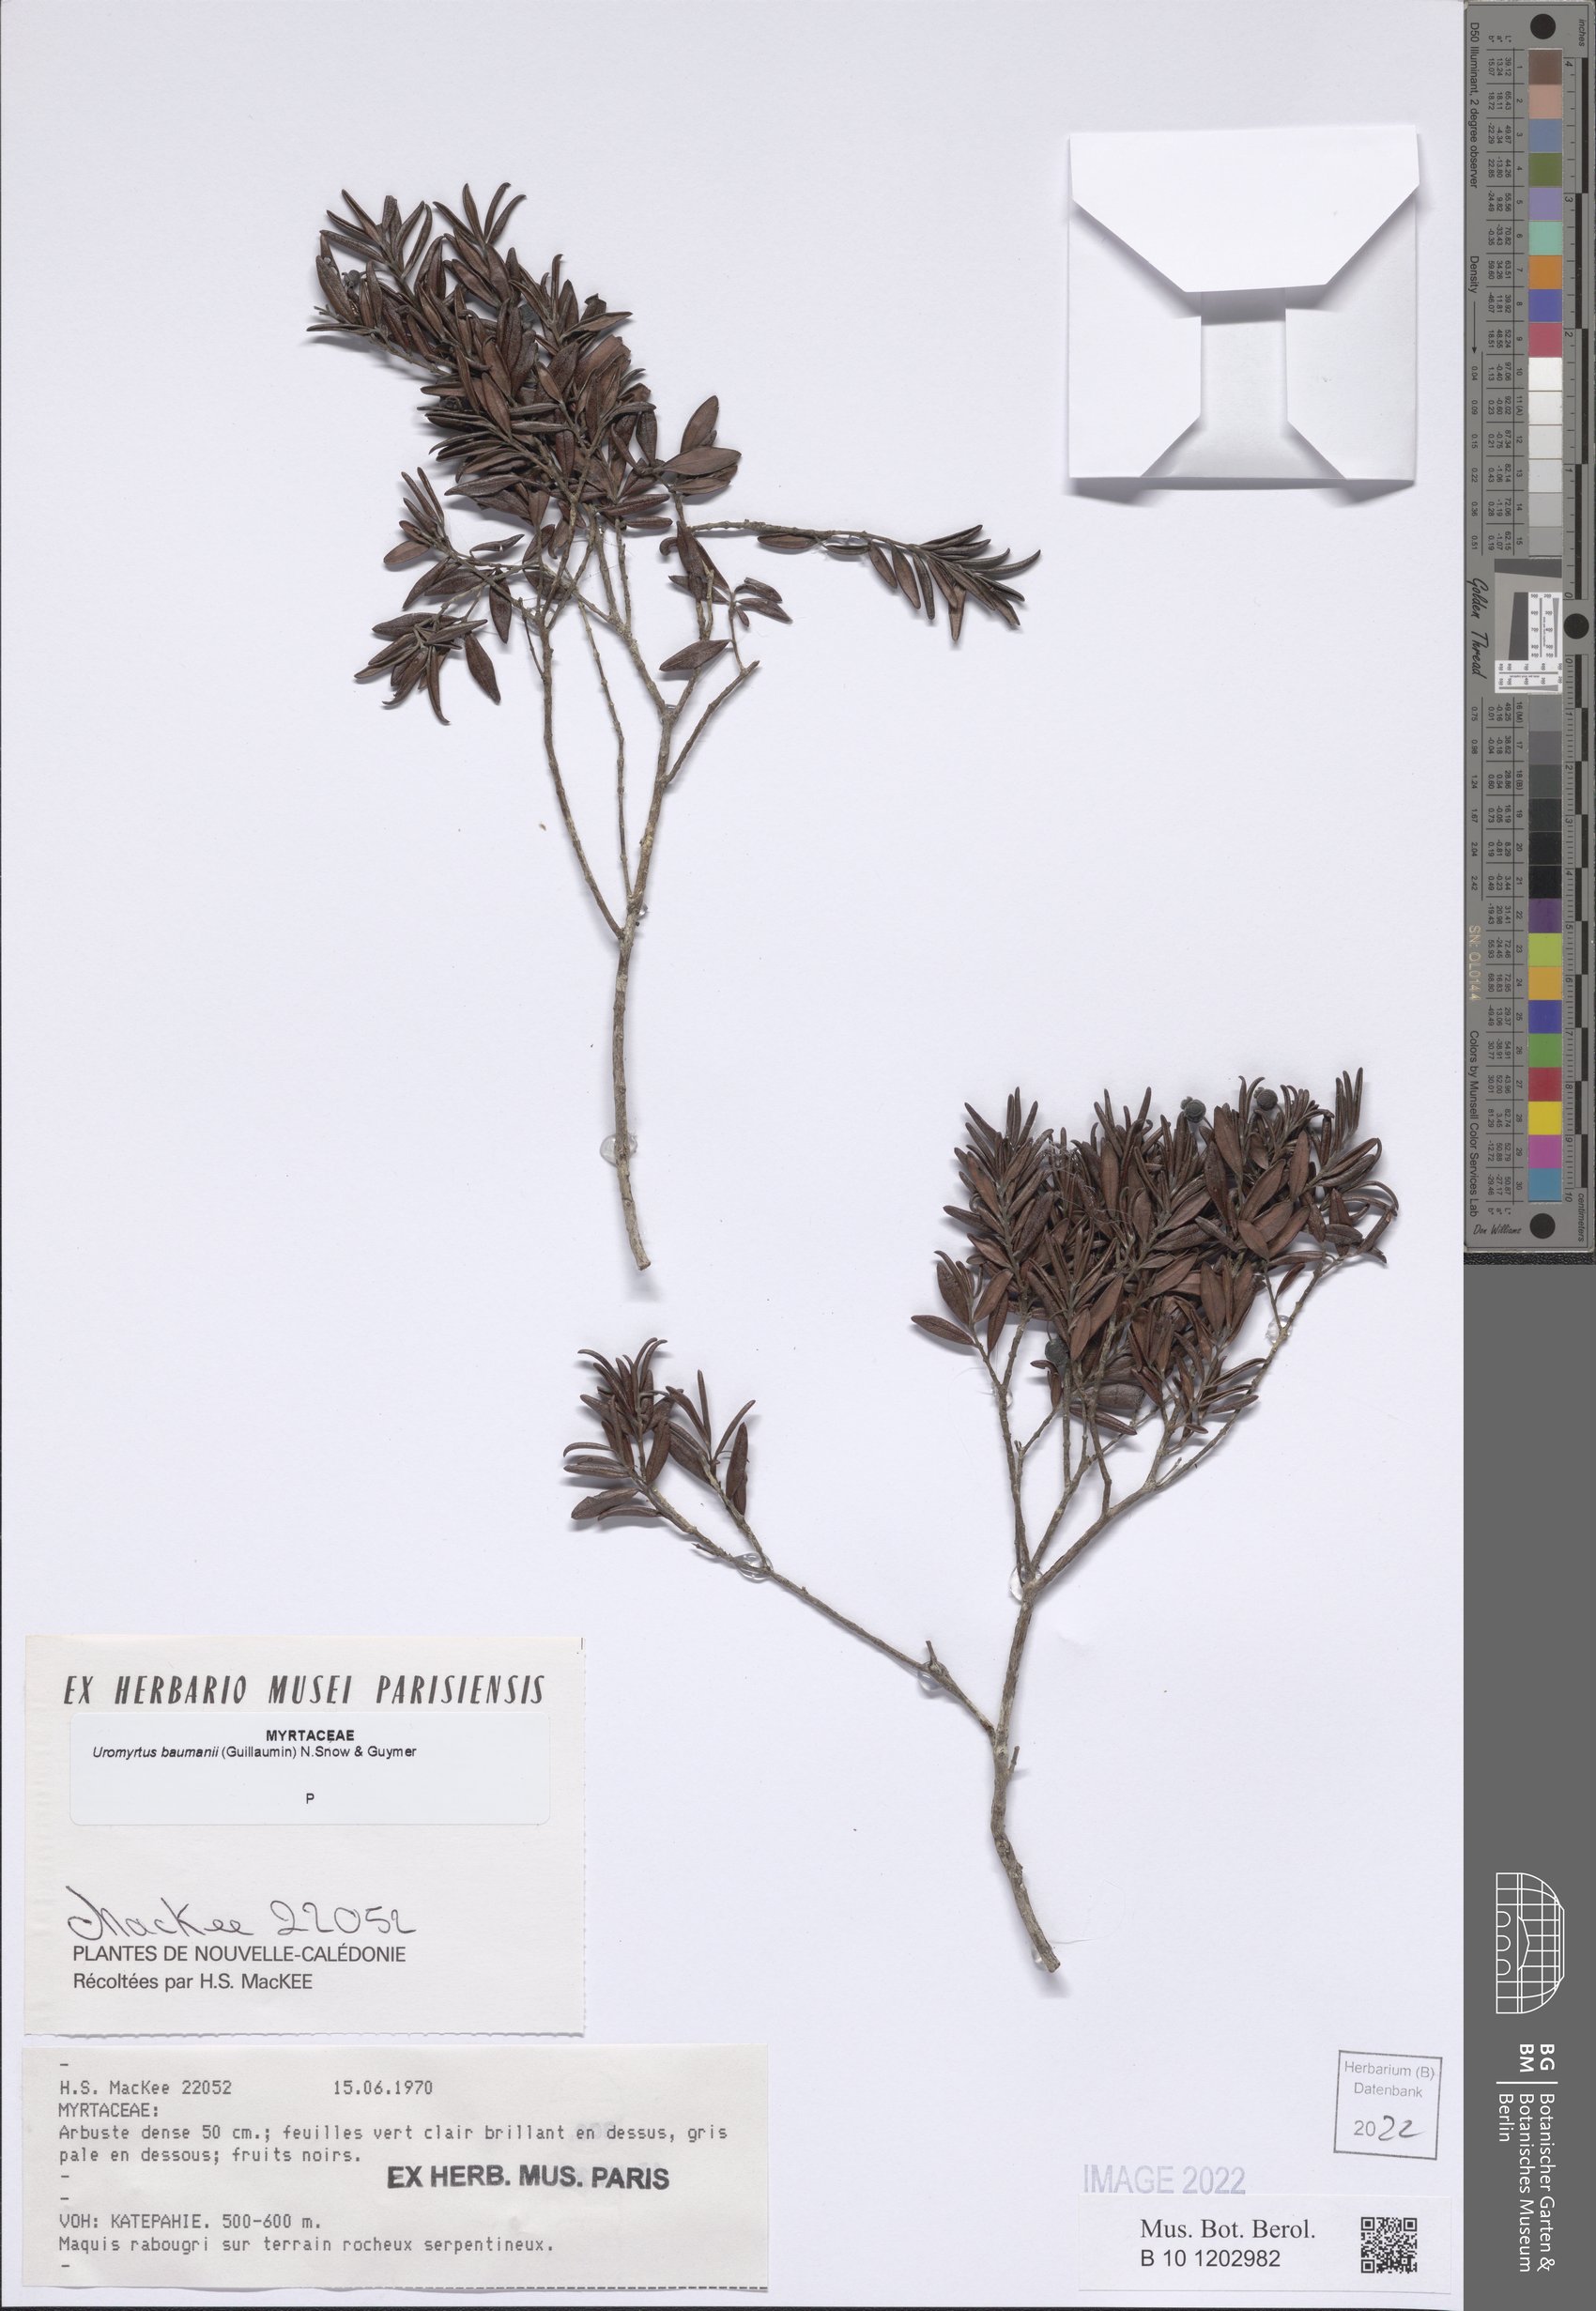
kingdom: Plantae
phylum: Tracheophyta
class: Magnoliopsida
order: Myrtales
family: Myrtaceae
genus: Uromyrtus
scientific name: Uromyrtus baumanii
